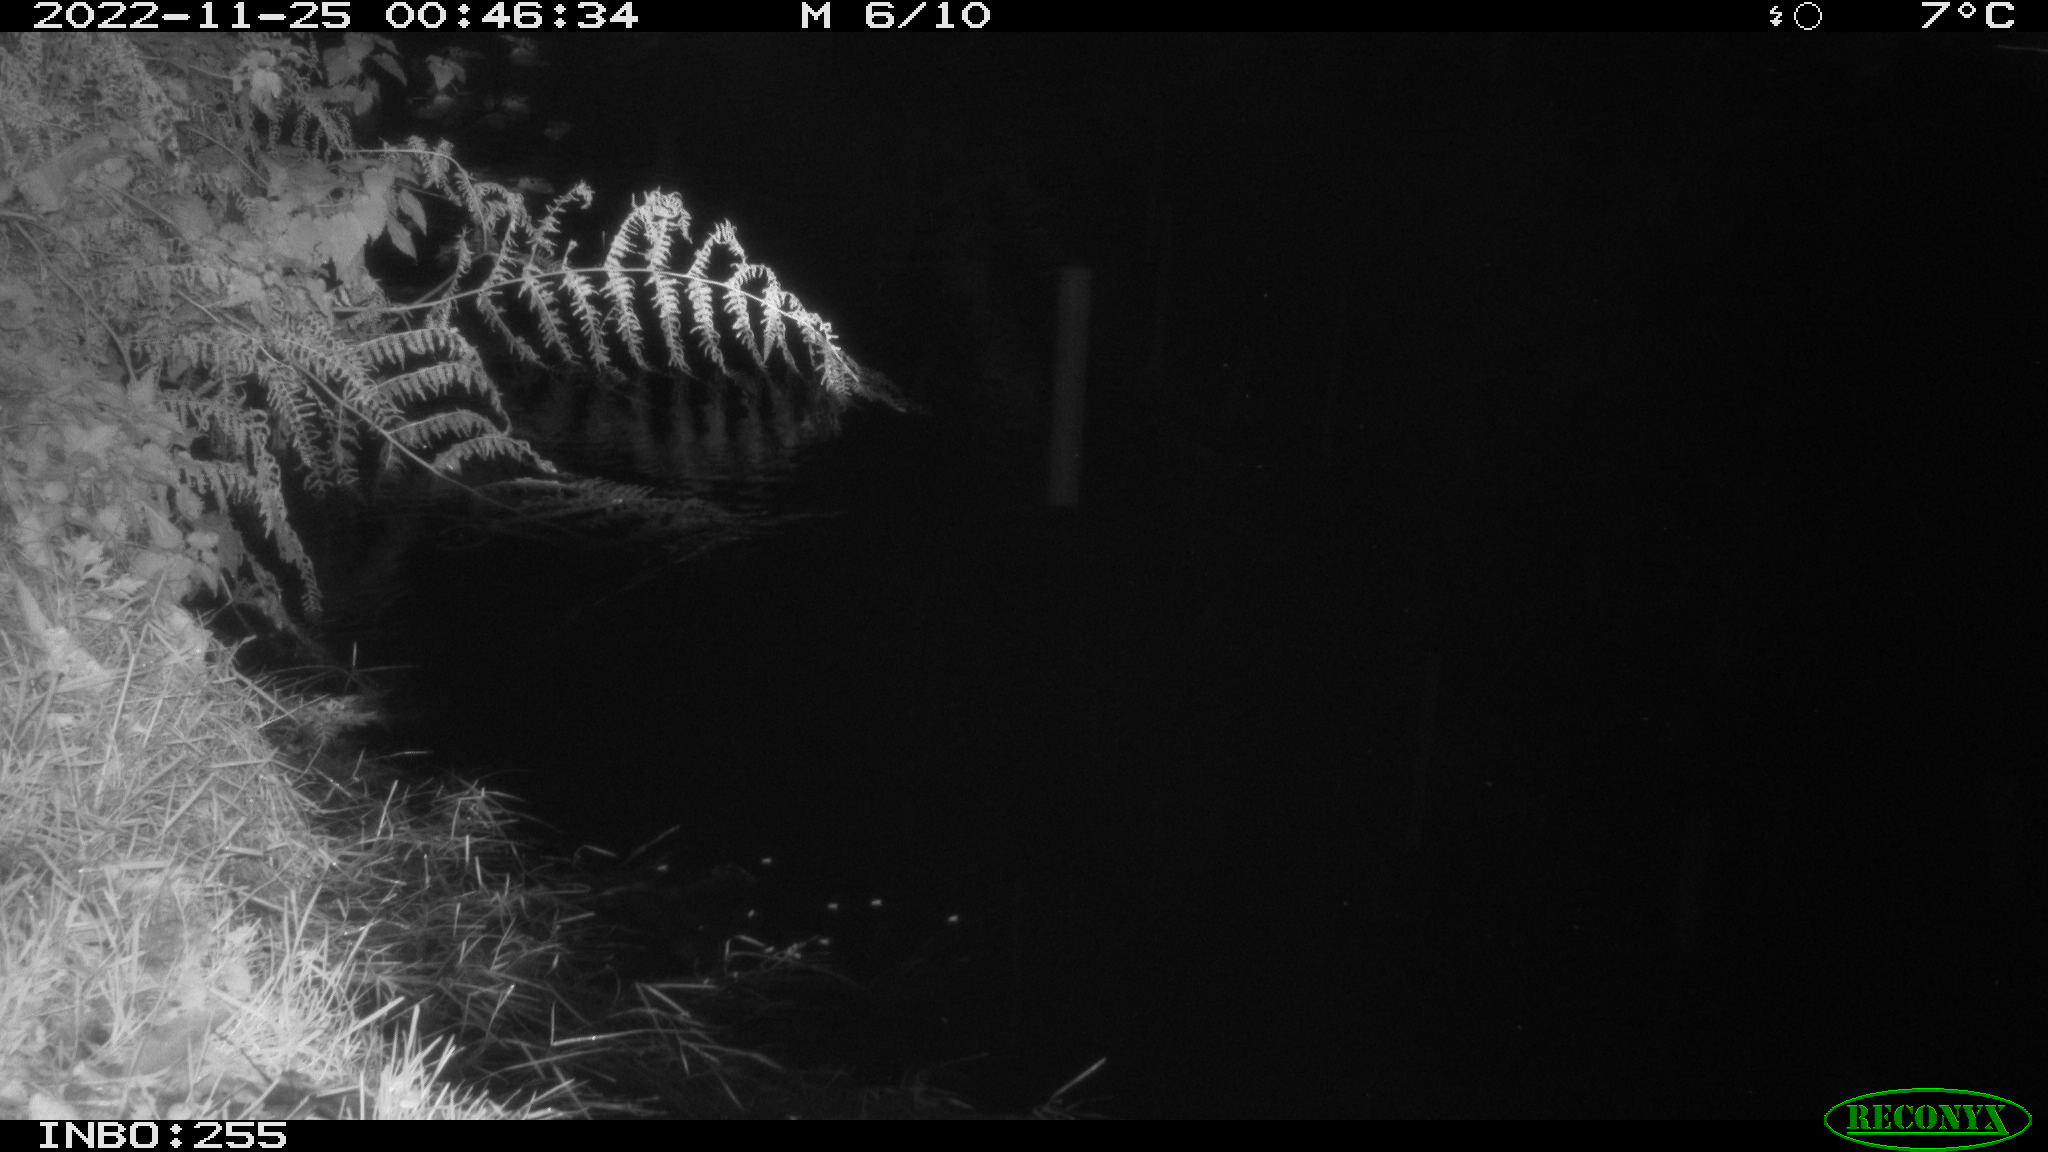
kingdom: Animalia
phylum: Chordata
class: Mammalia
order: Rodentia
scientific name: Rodentia
